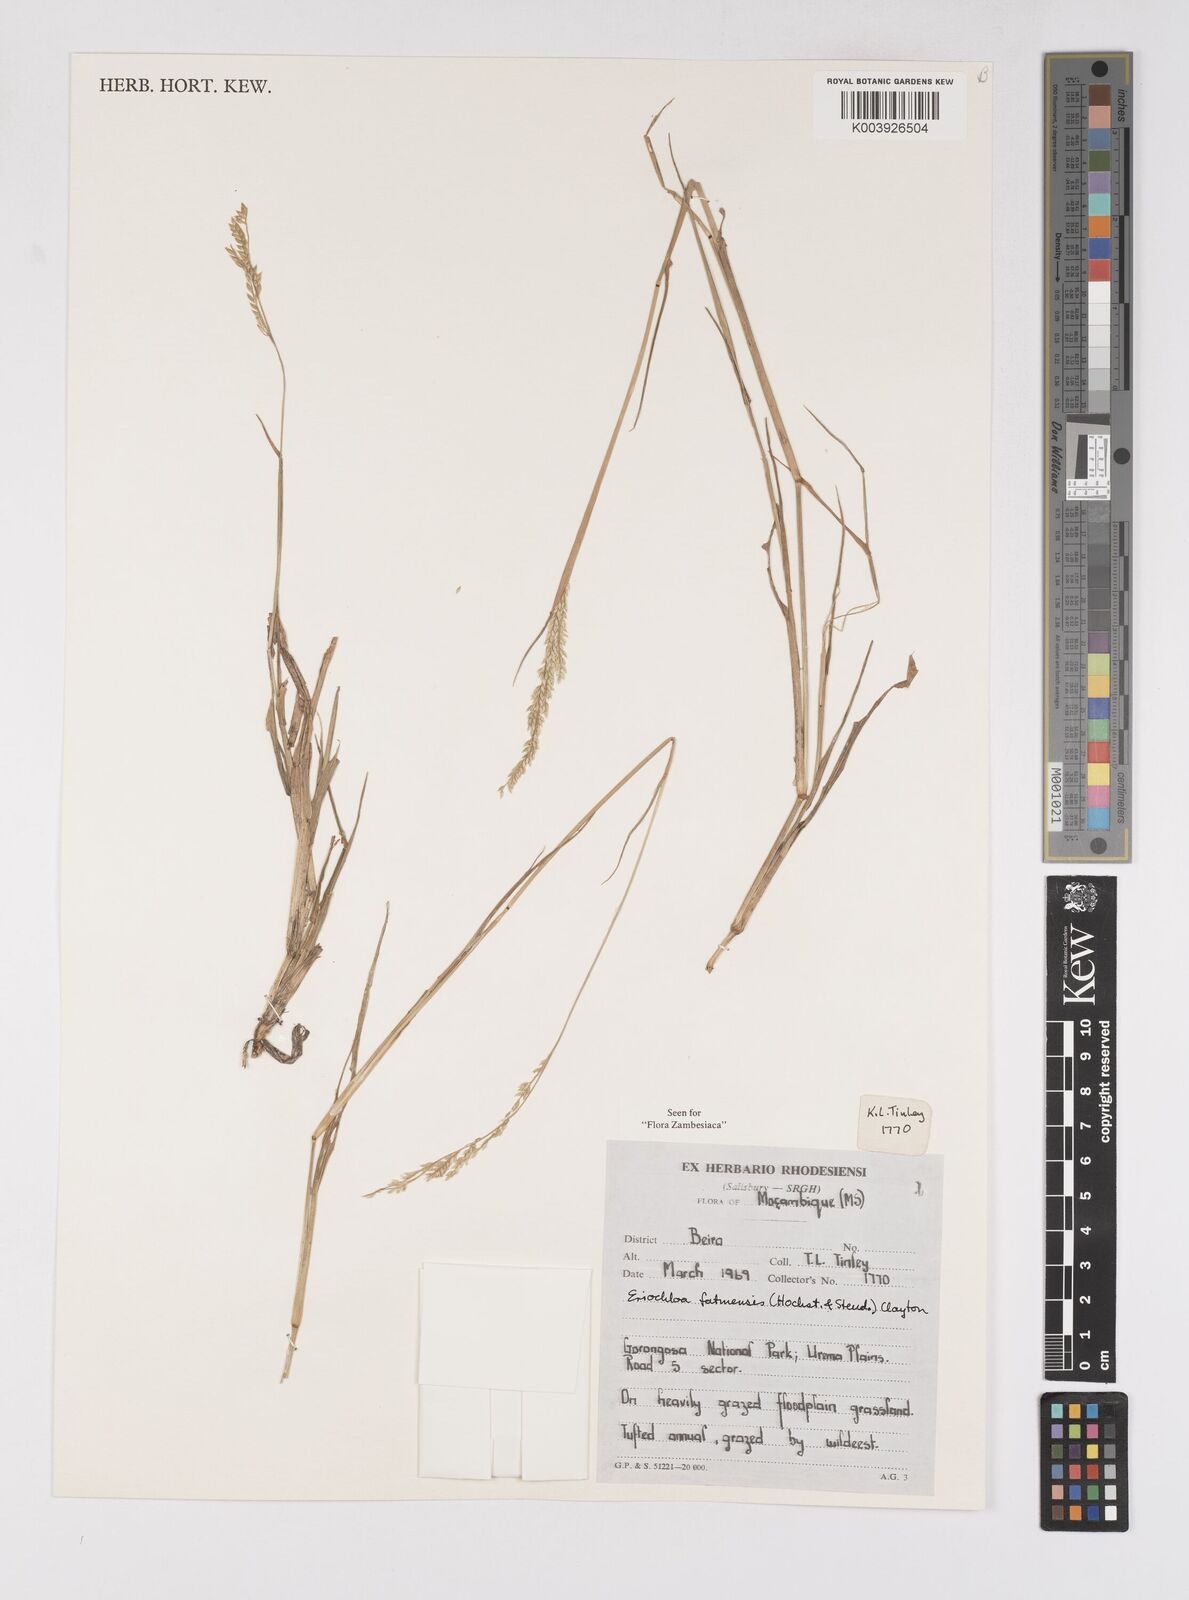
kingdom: Plantae
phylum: Tracheophyta
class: Liliopsida
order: Poales
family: Poaceae
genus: Eriochloa
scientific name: Eriochloa barbatus
